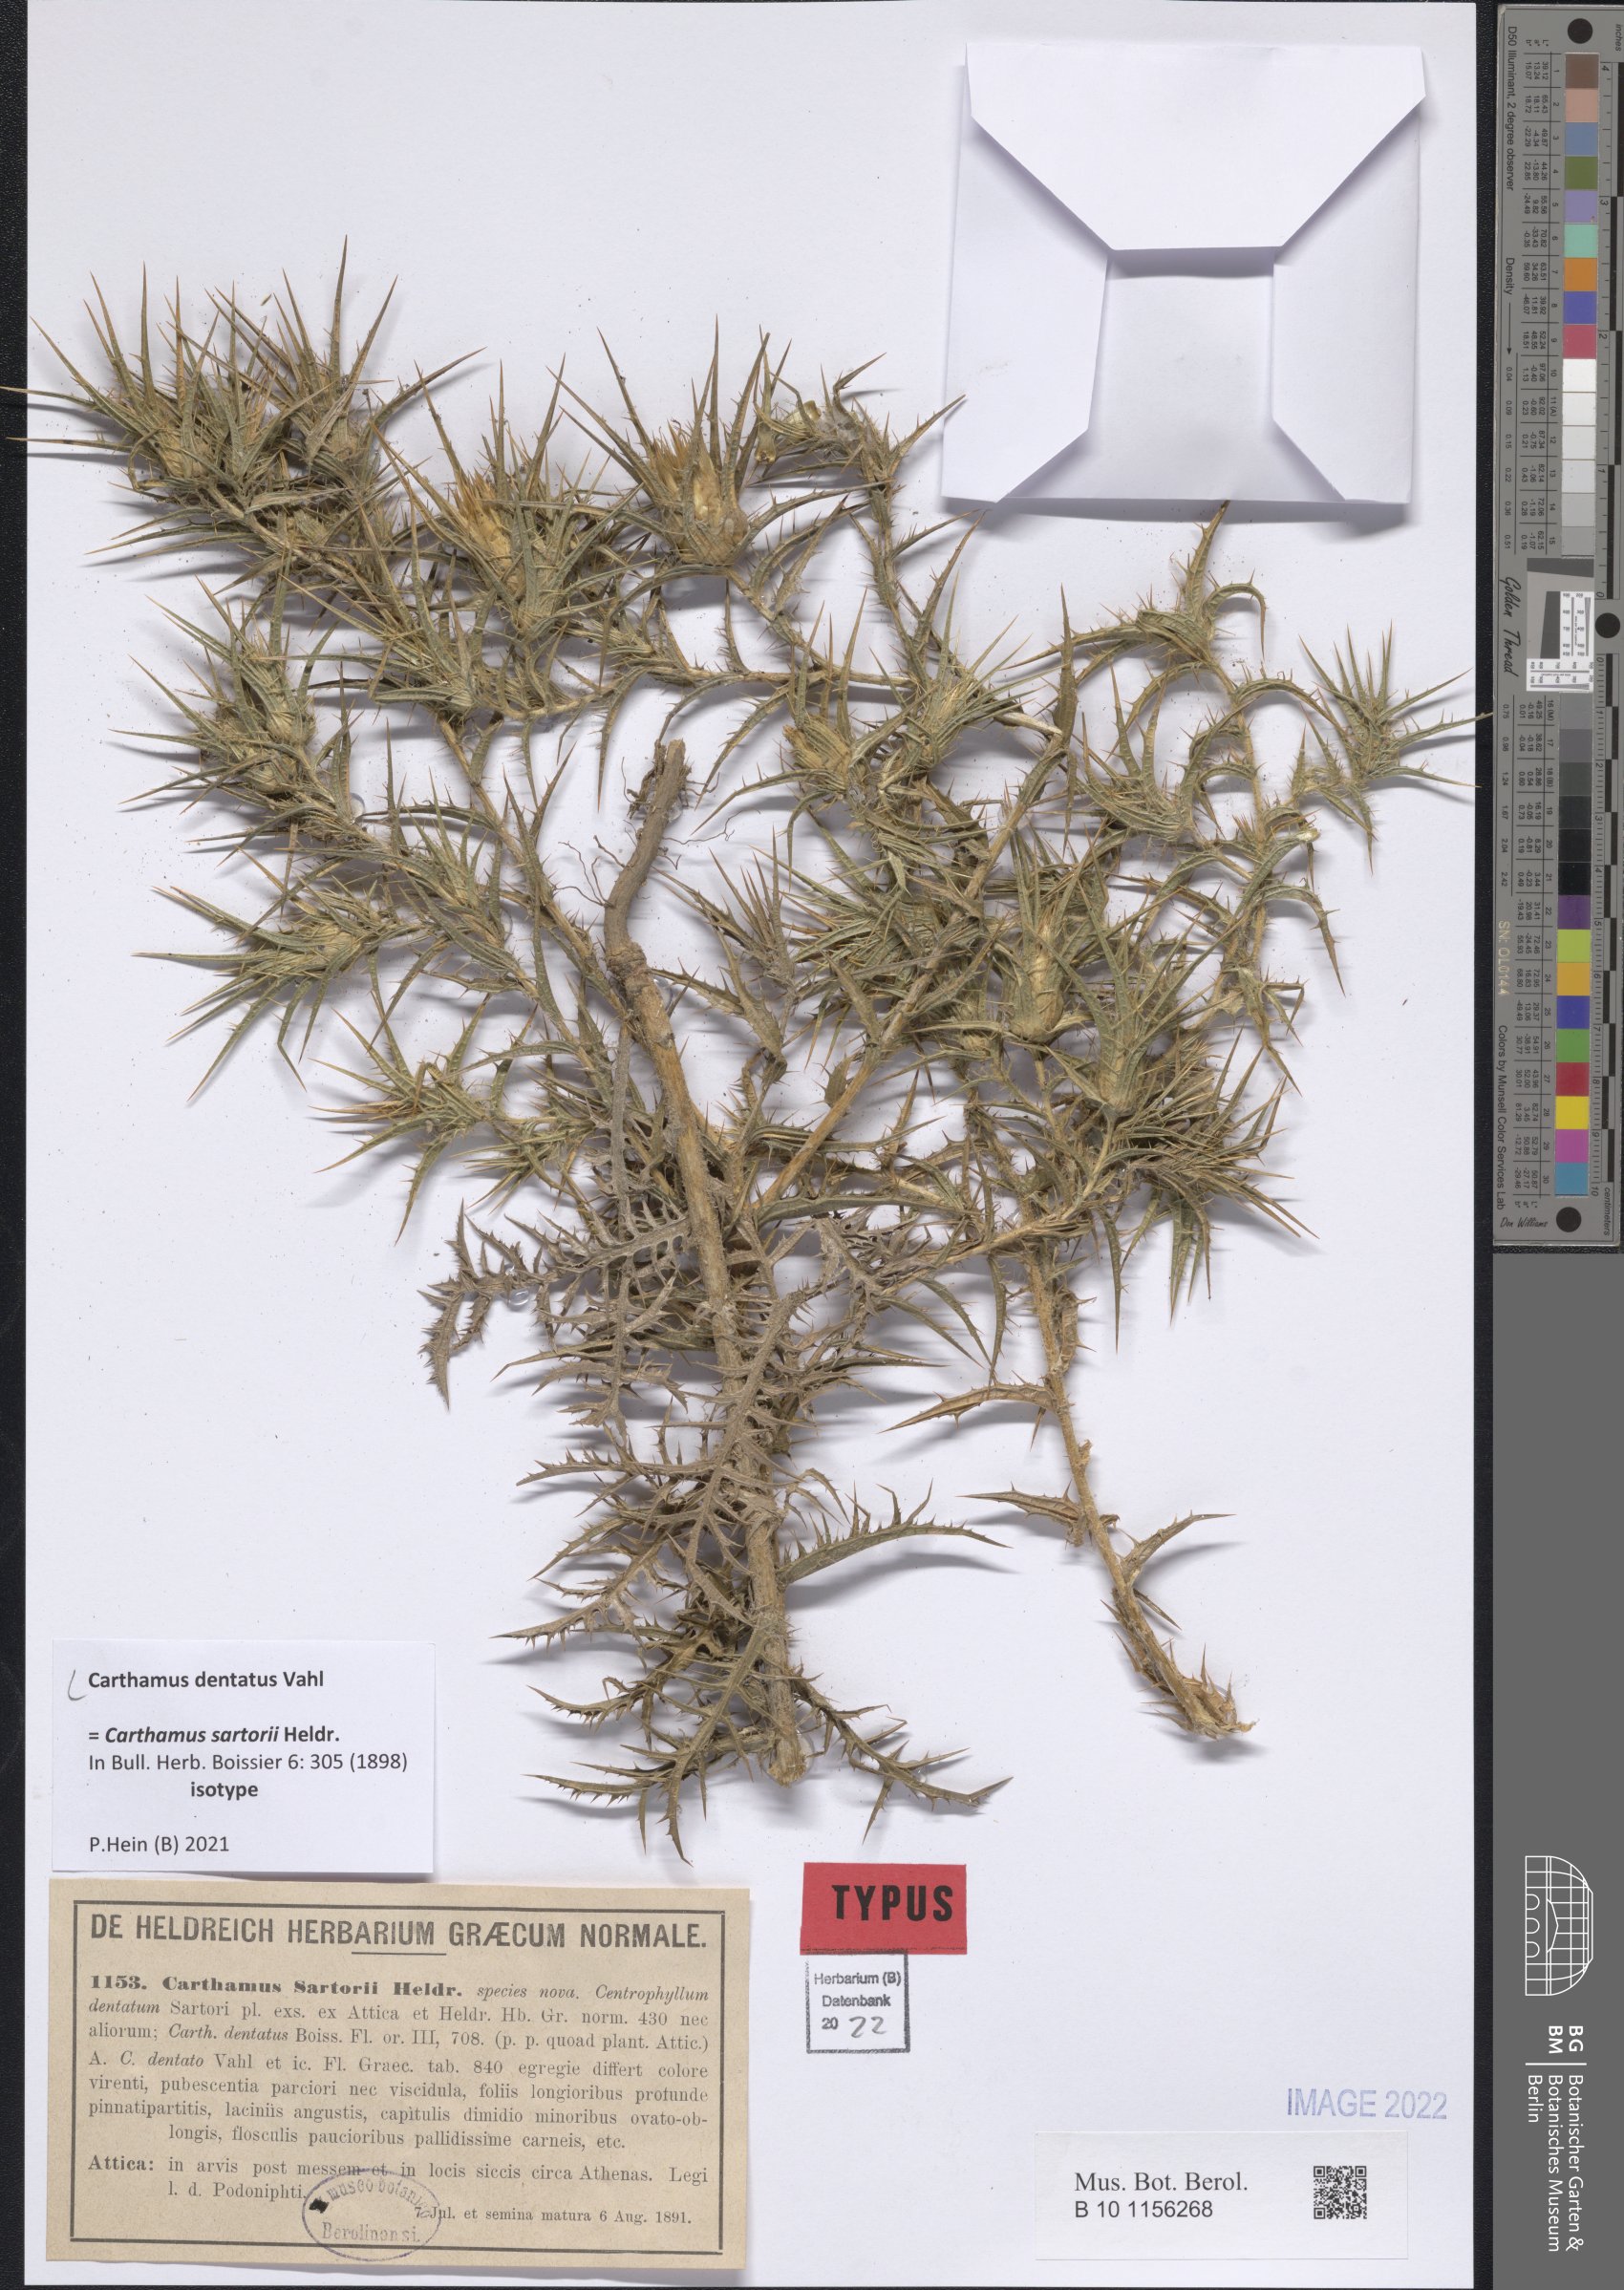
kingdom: Plantae
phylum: Tracheophyta
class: Magnoliopsida
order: Asterales
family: Asteraceae
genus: Carthamus
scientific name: Carthamus dentatus
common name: Toothed thistle
